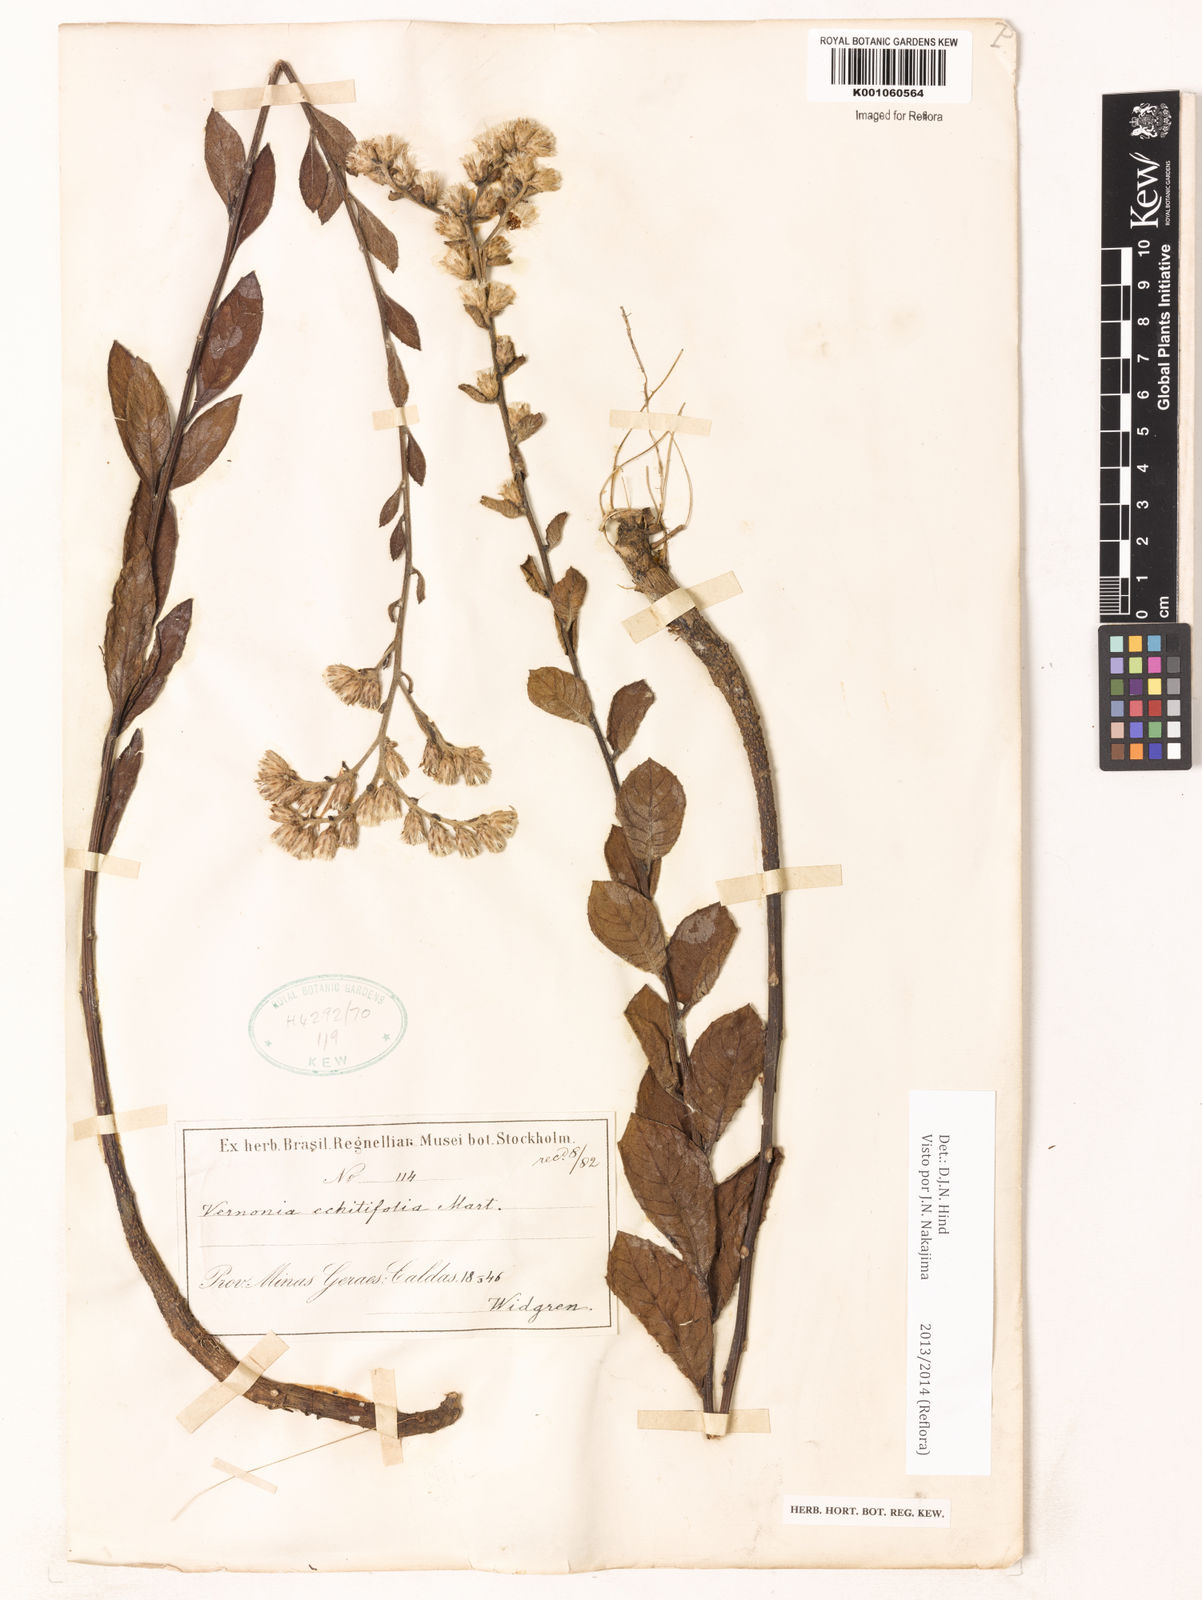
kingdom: Plantae
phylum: Tracheophyta
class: Magnoliopsida
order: Asterales
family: Asteraceae
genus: Acilepidopsis
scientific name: Acilepidopsis echitifolia
